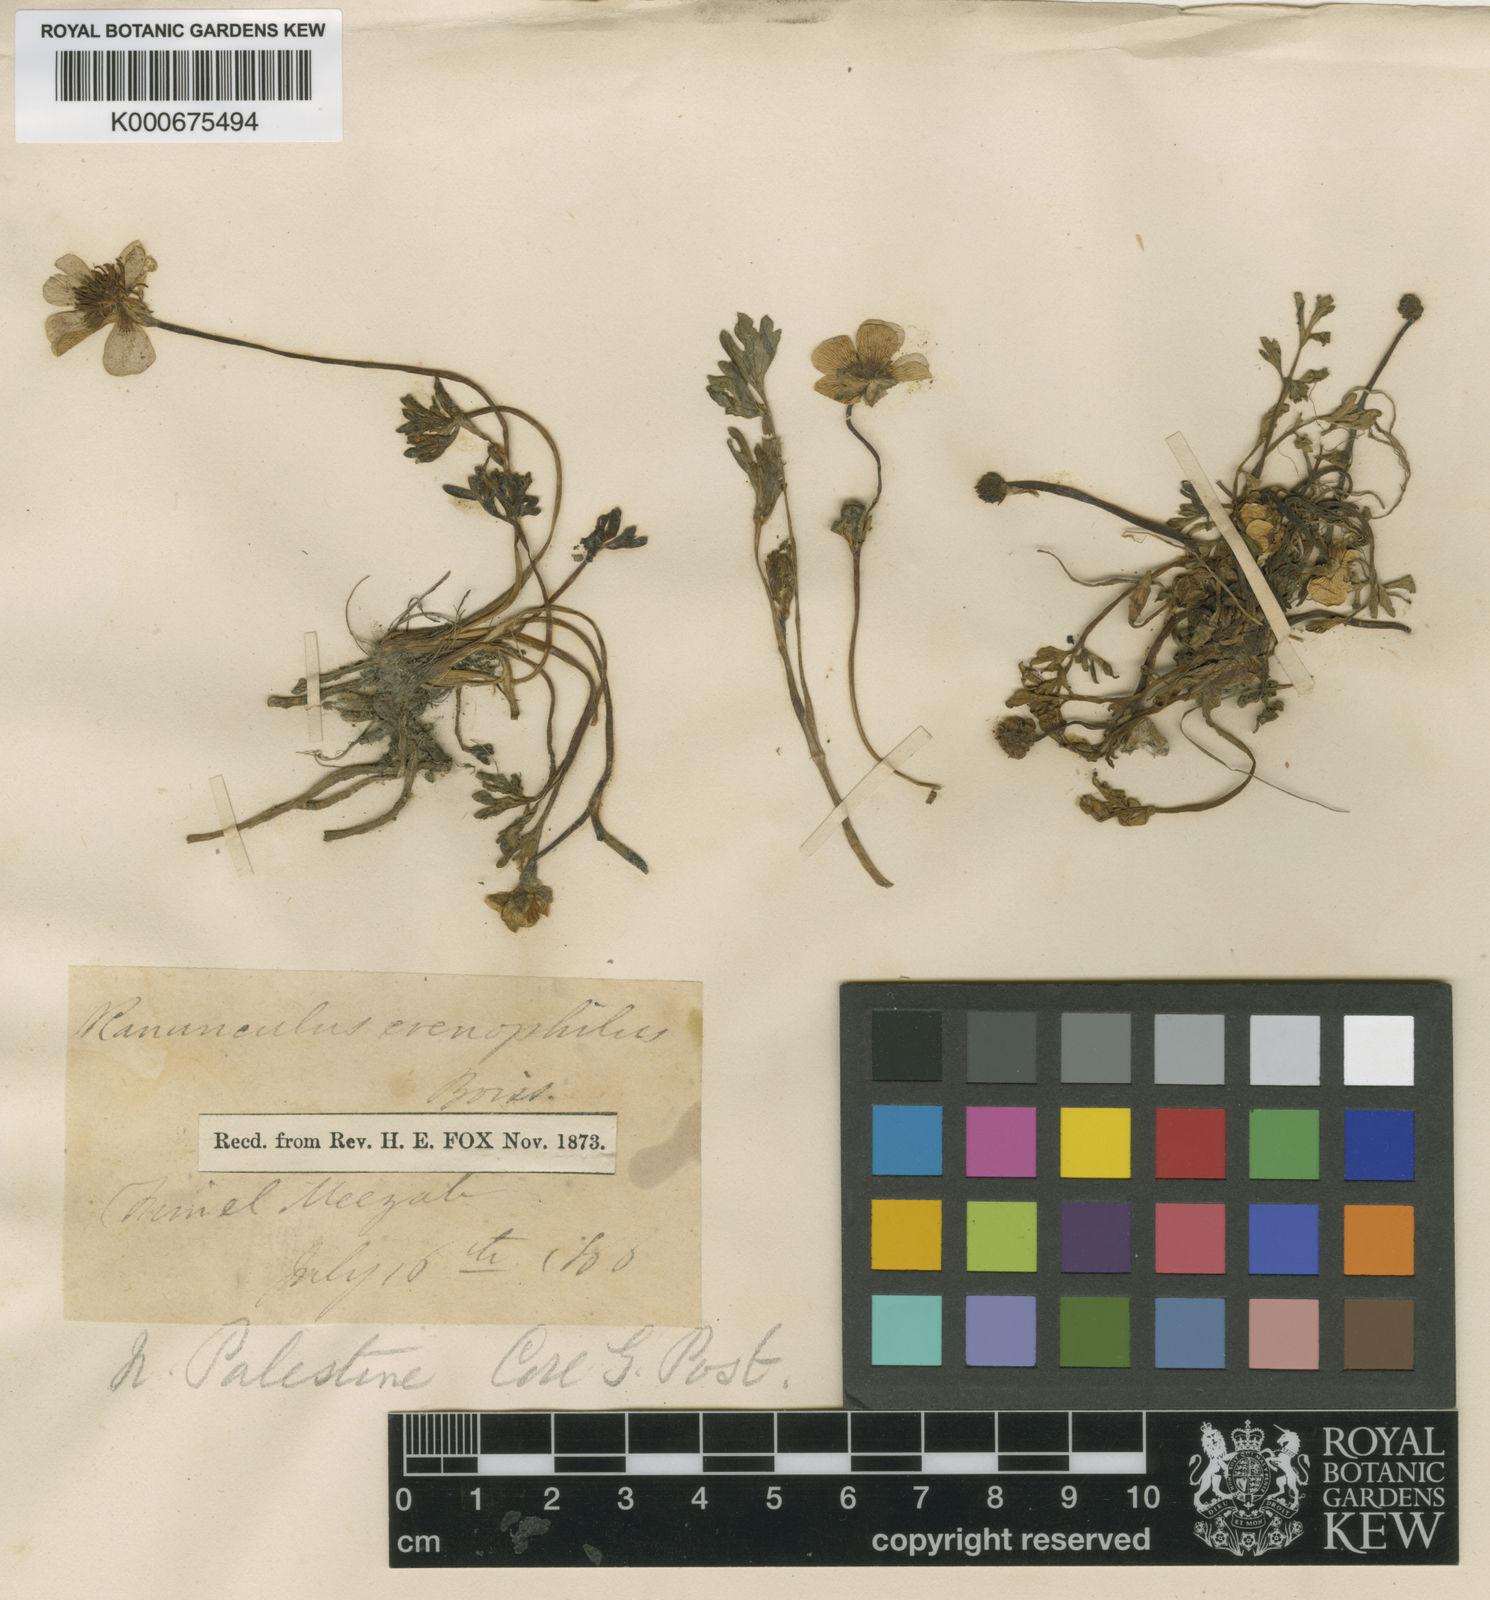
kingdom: Plantae
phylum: Tracheophyta
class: Magnoliopsida
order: Ranunculales
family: Ranunculaceae
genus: Ranunculus
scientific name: Ranunculus chionophilus
